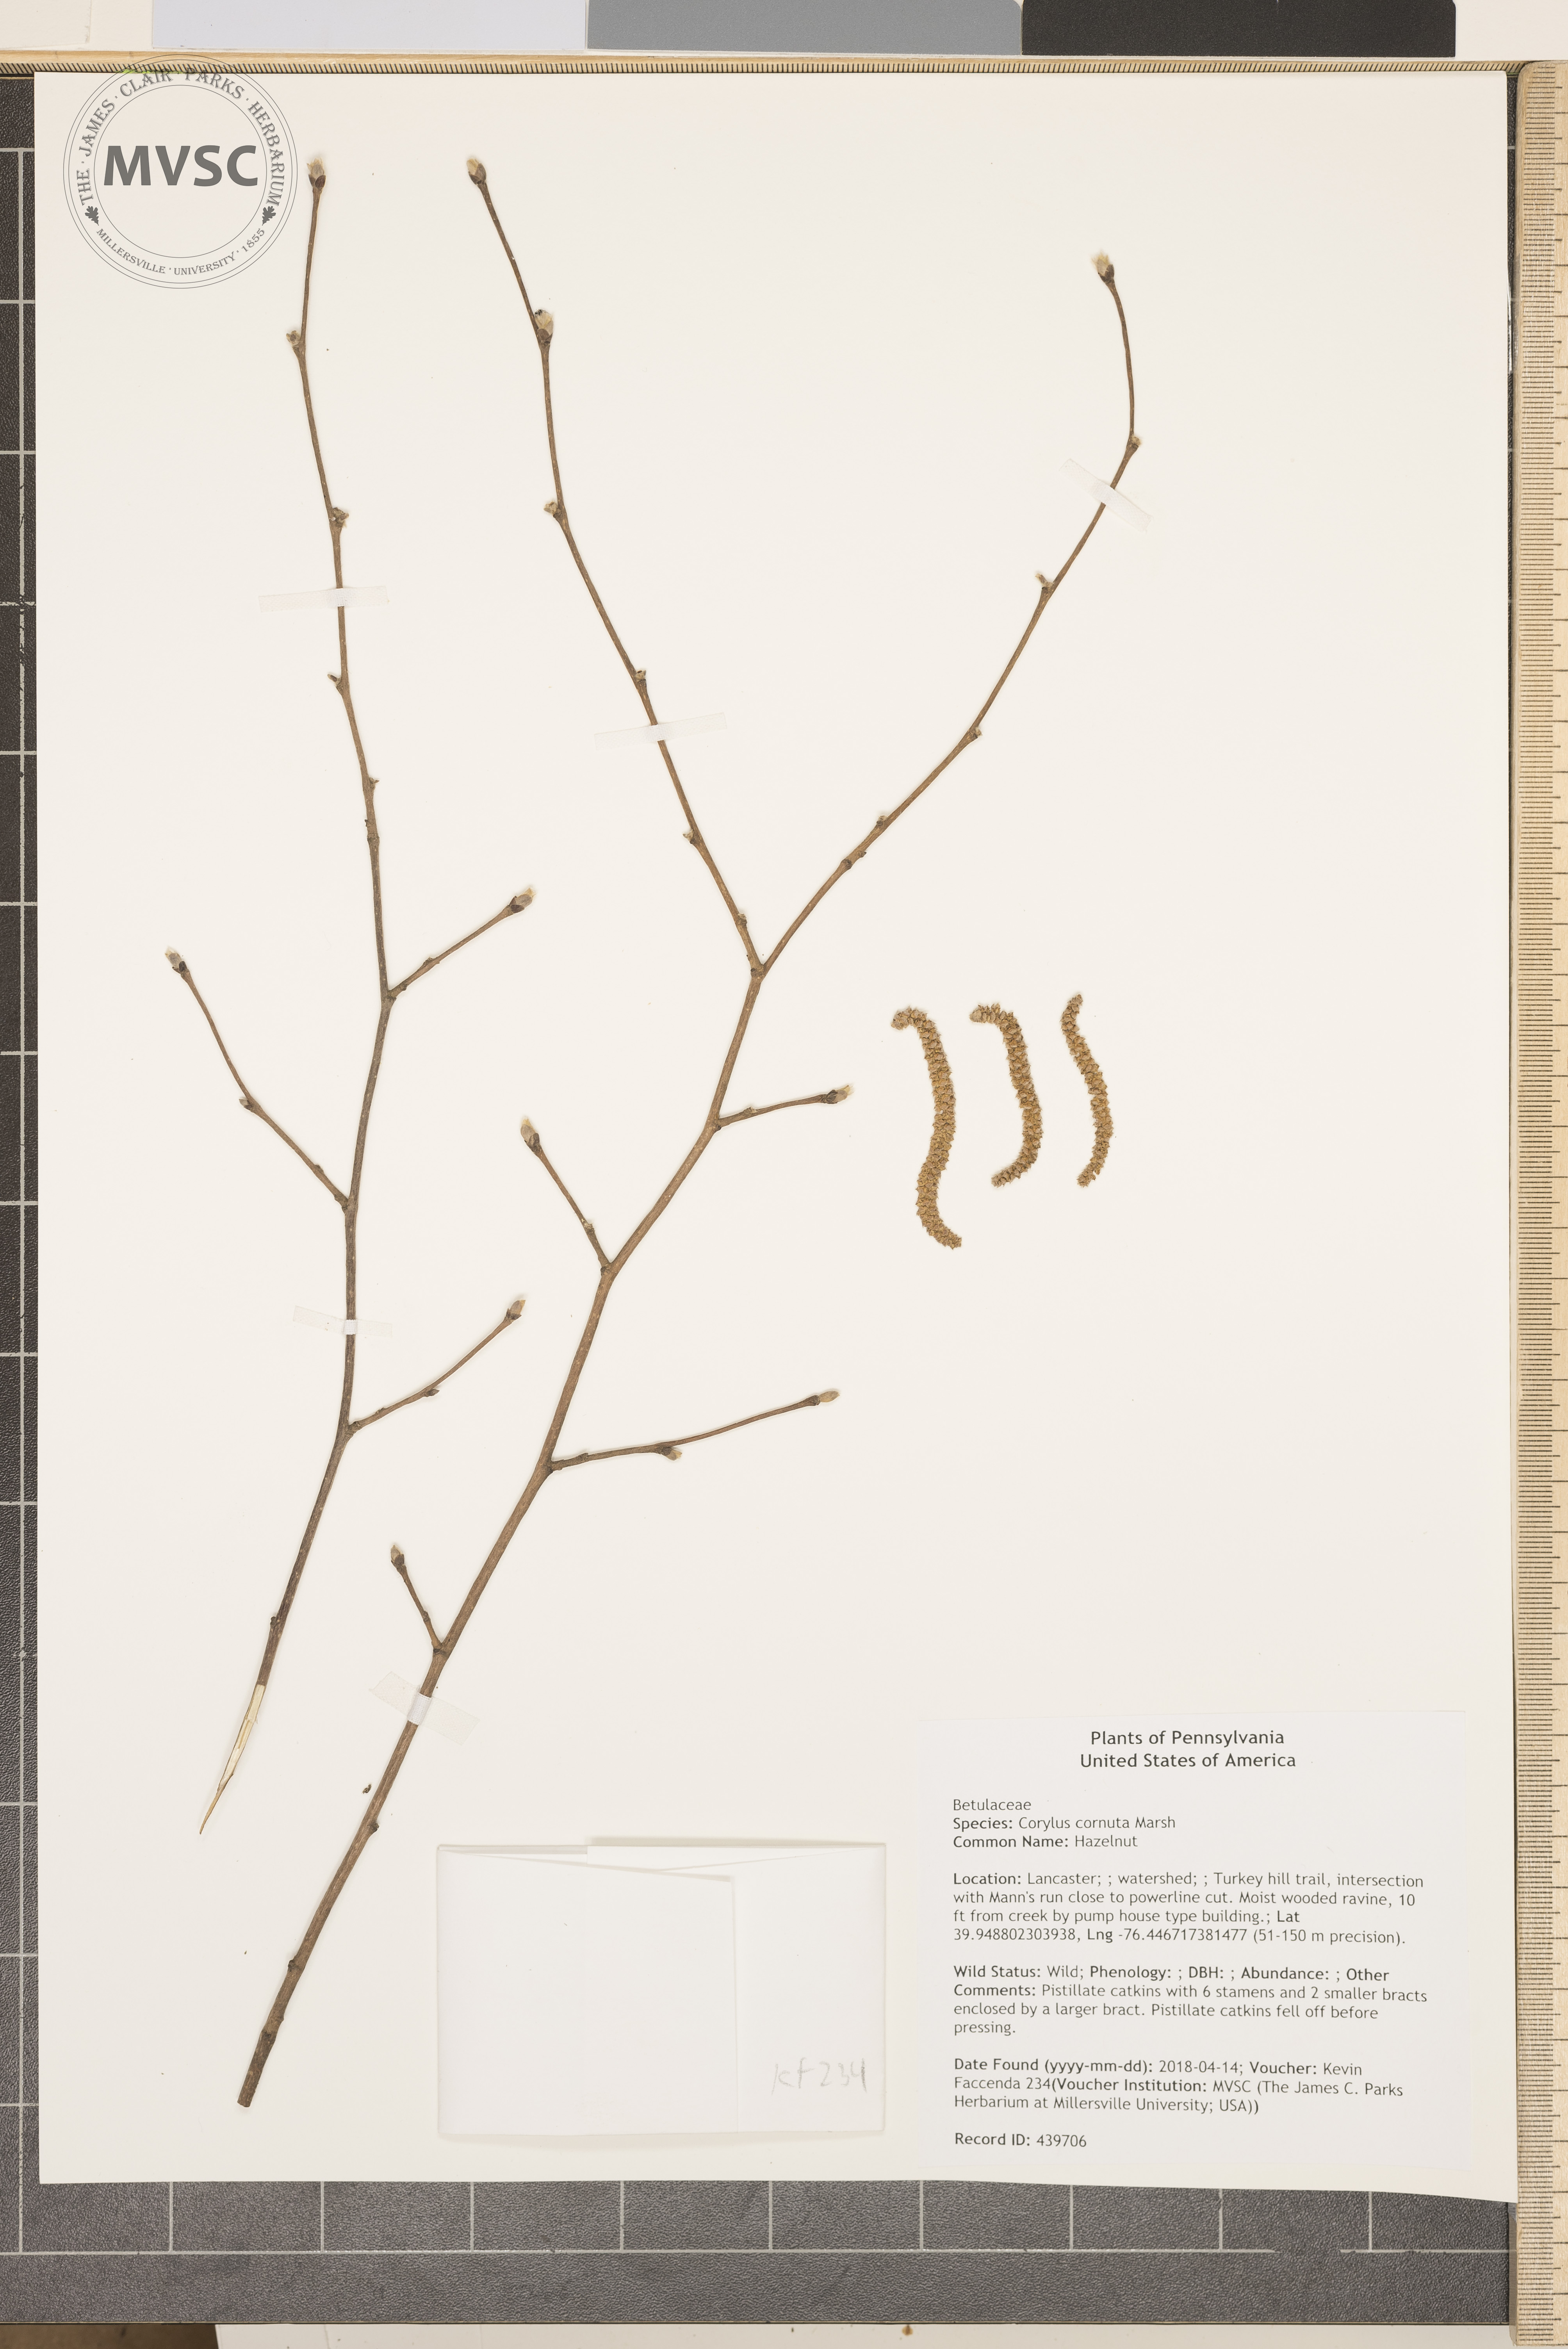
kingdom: Plantae
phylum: Tracheophyta
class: Magnoliopsida
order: Fagales
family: Betulaceae
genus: Corylus
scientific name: Corylus cornuta
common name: Hazelnut
